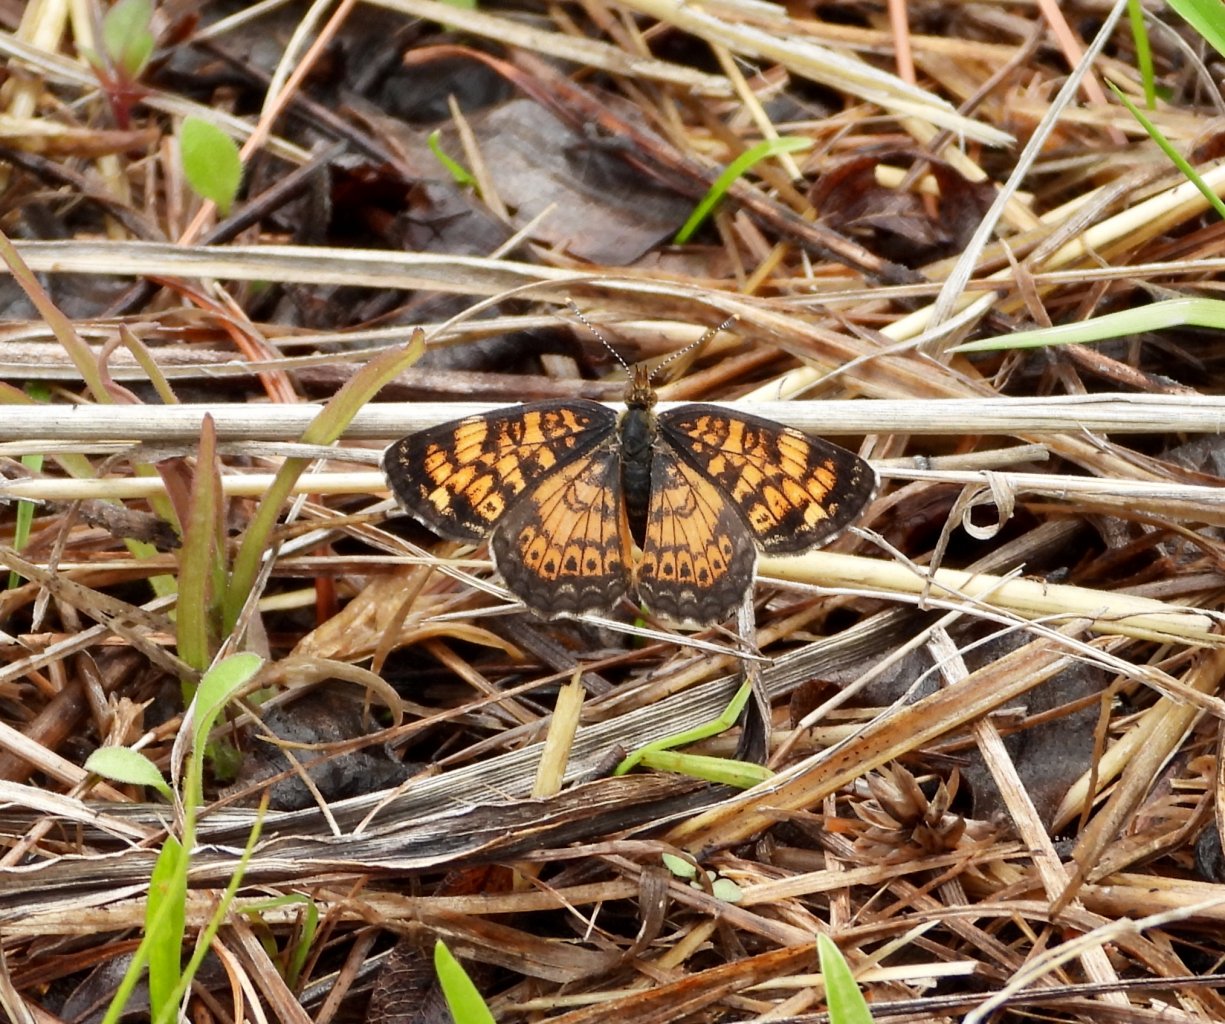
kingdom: Animalia
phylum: Arthropoda
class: Insecta
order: Lepidoptera
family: Nymphalidae
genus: Phyciodes
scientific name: Phyciodes tharos
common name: Pearl Crescent
